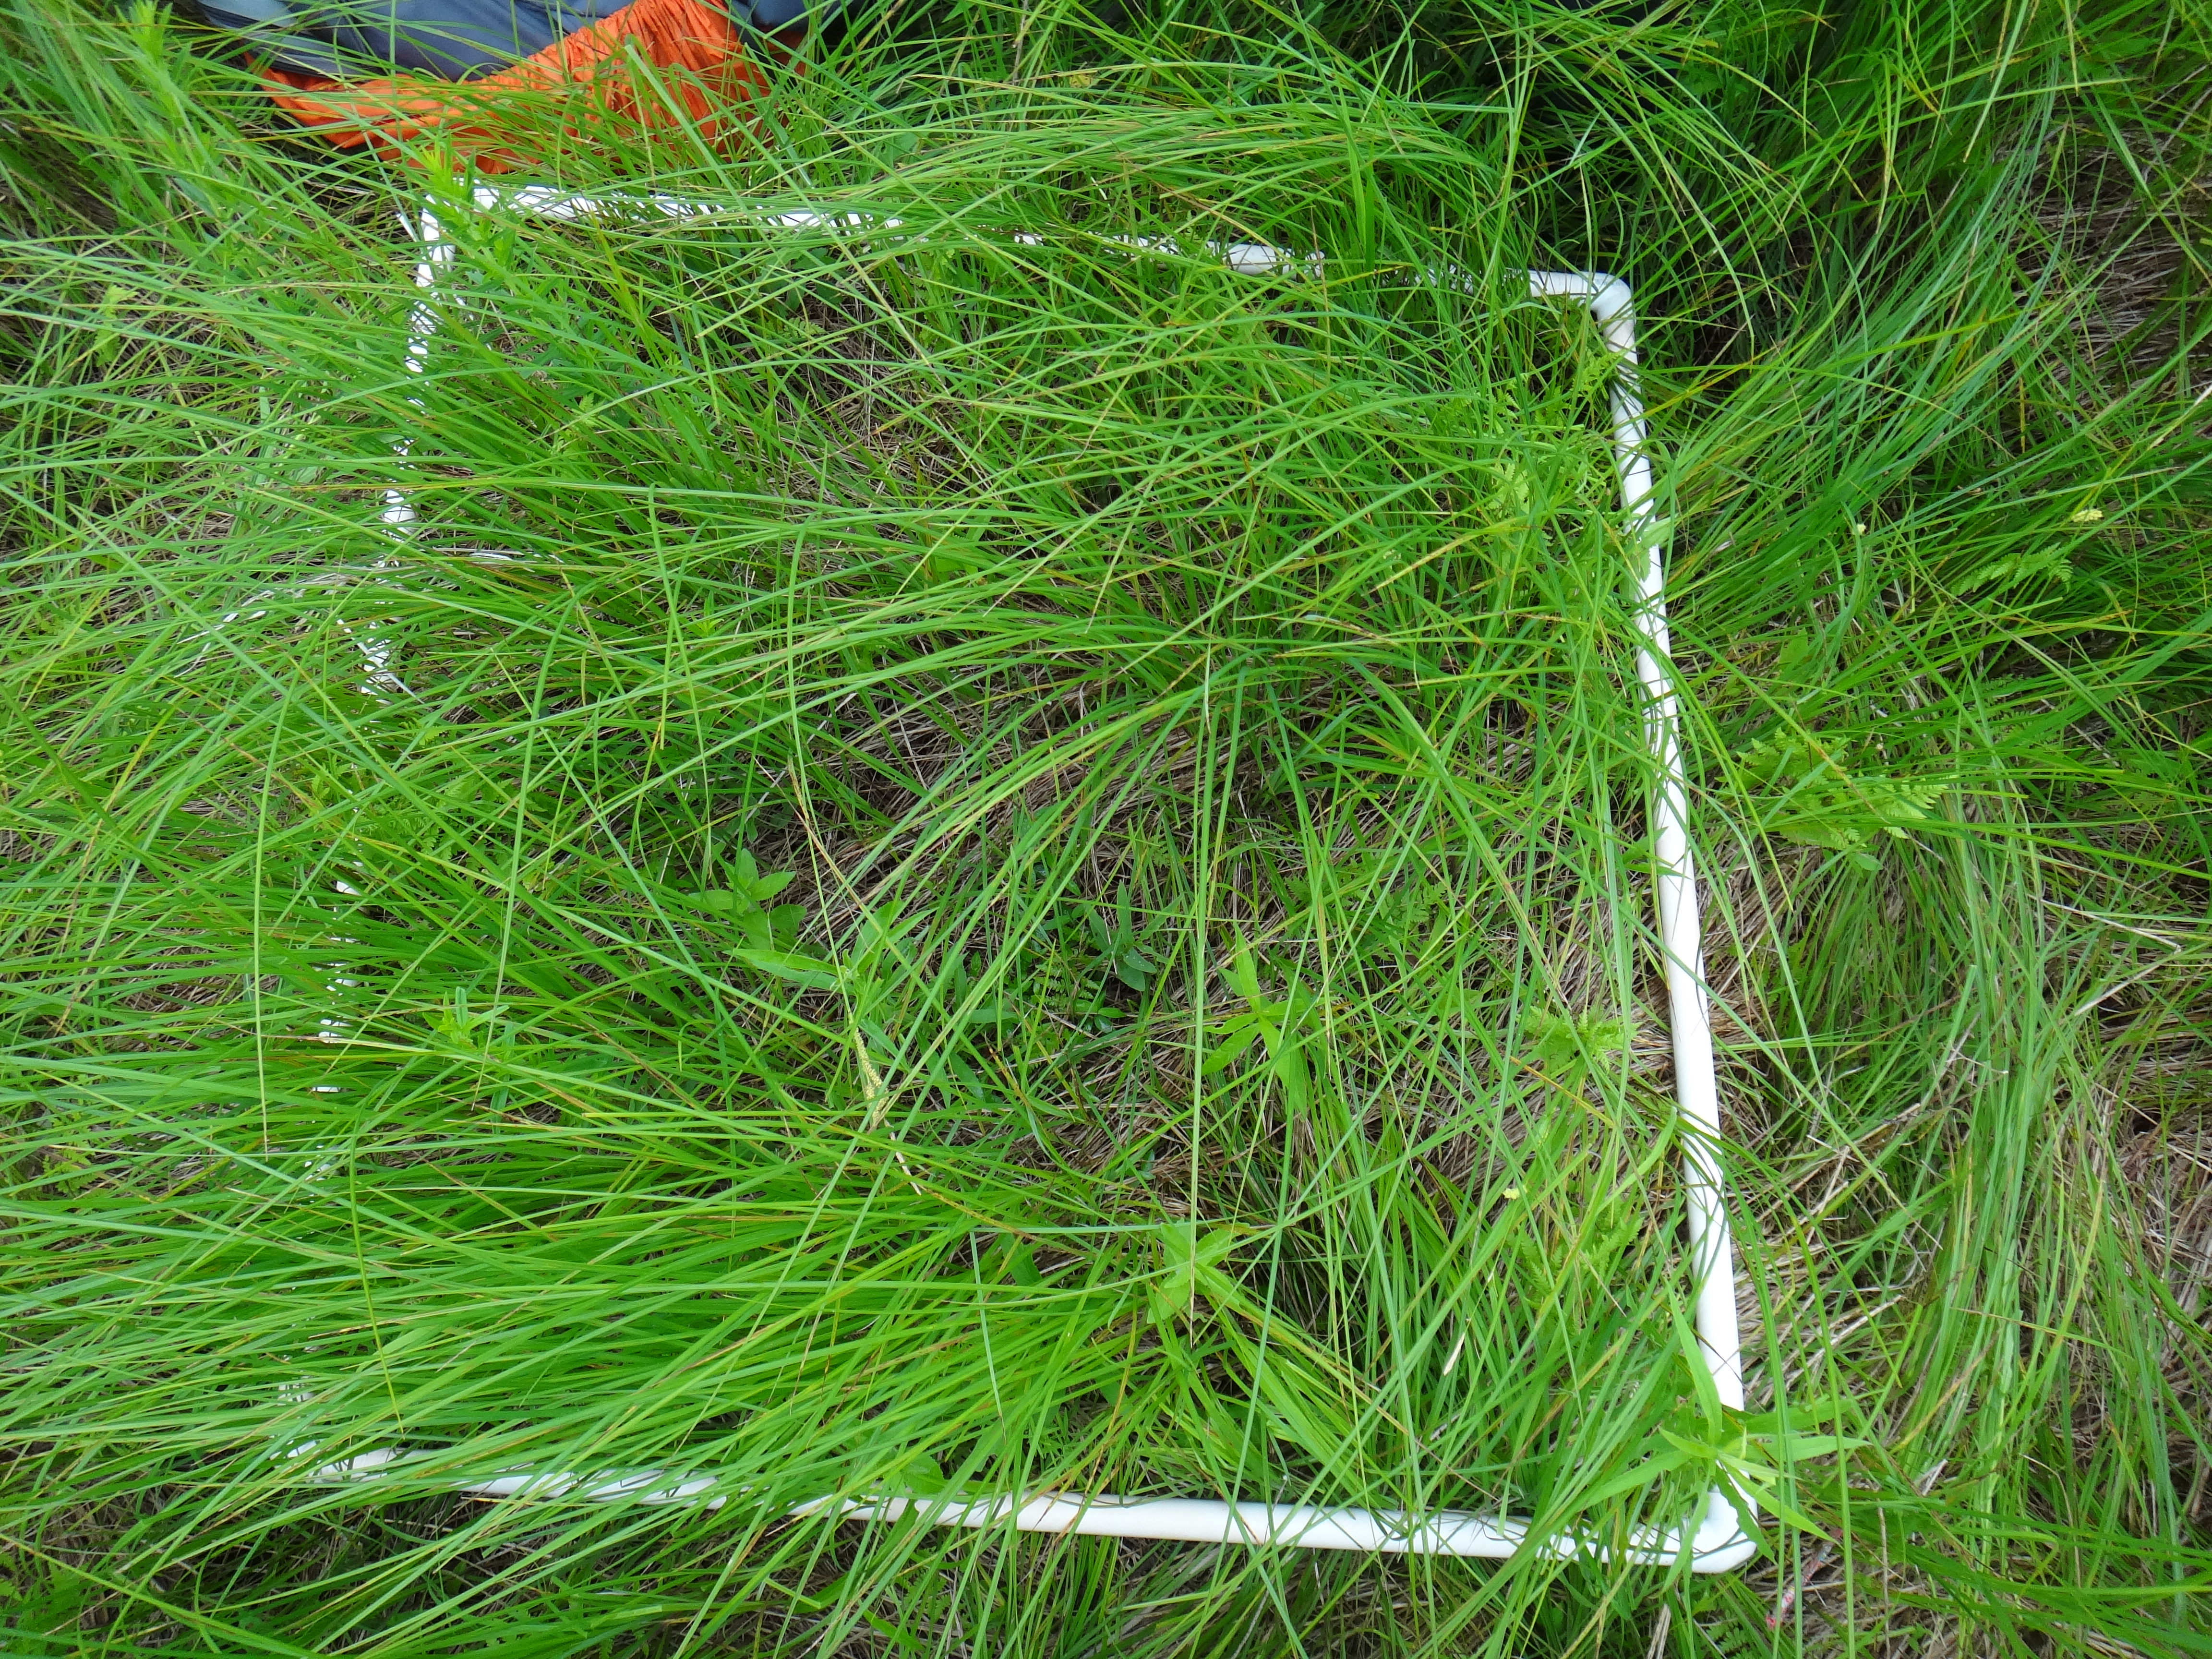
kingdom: Plantae
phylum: Tracheophyta
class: Magnoliopsida
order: Asterales
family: Asteraceae
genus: Solidago
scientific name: Solidago canadensis
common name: Canada goldenrod
